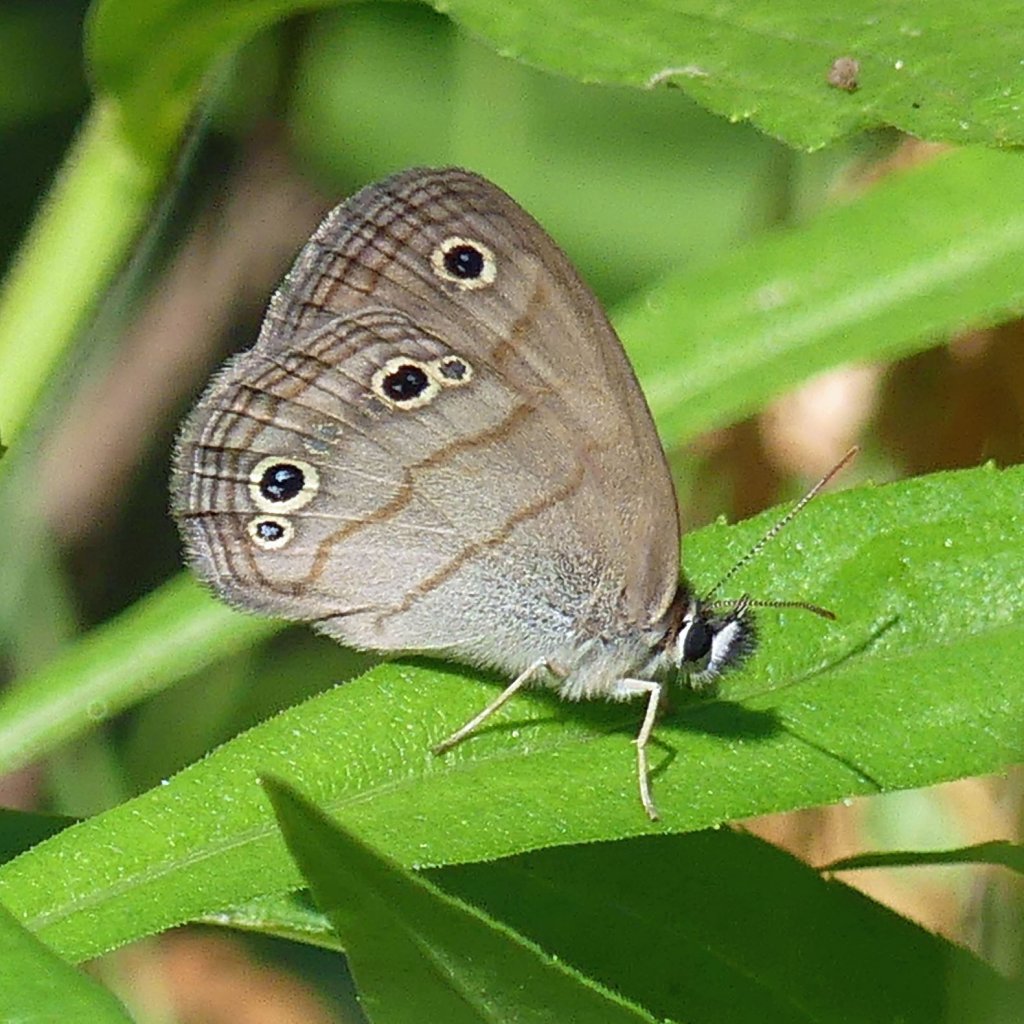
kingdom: Animalia
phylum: Arthropoda
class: Insecta
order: Lepidoptera
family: Nymphalidae
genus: Euptychia
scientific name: Euptychia cymela
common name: Little Wood Satyr
